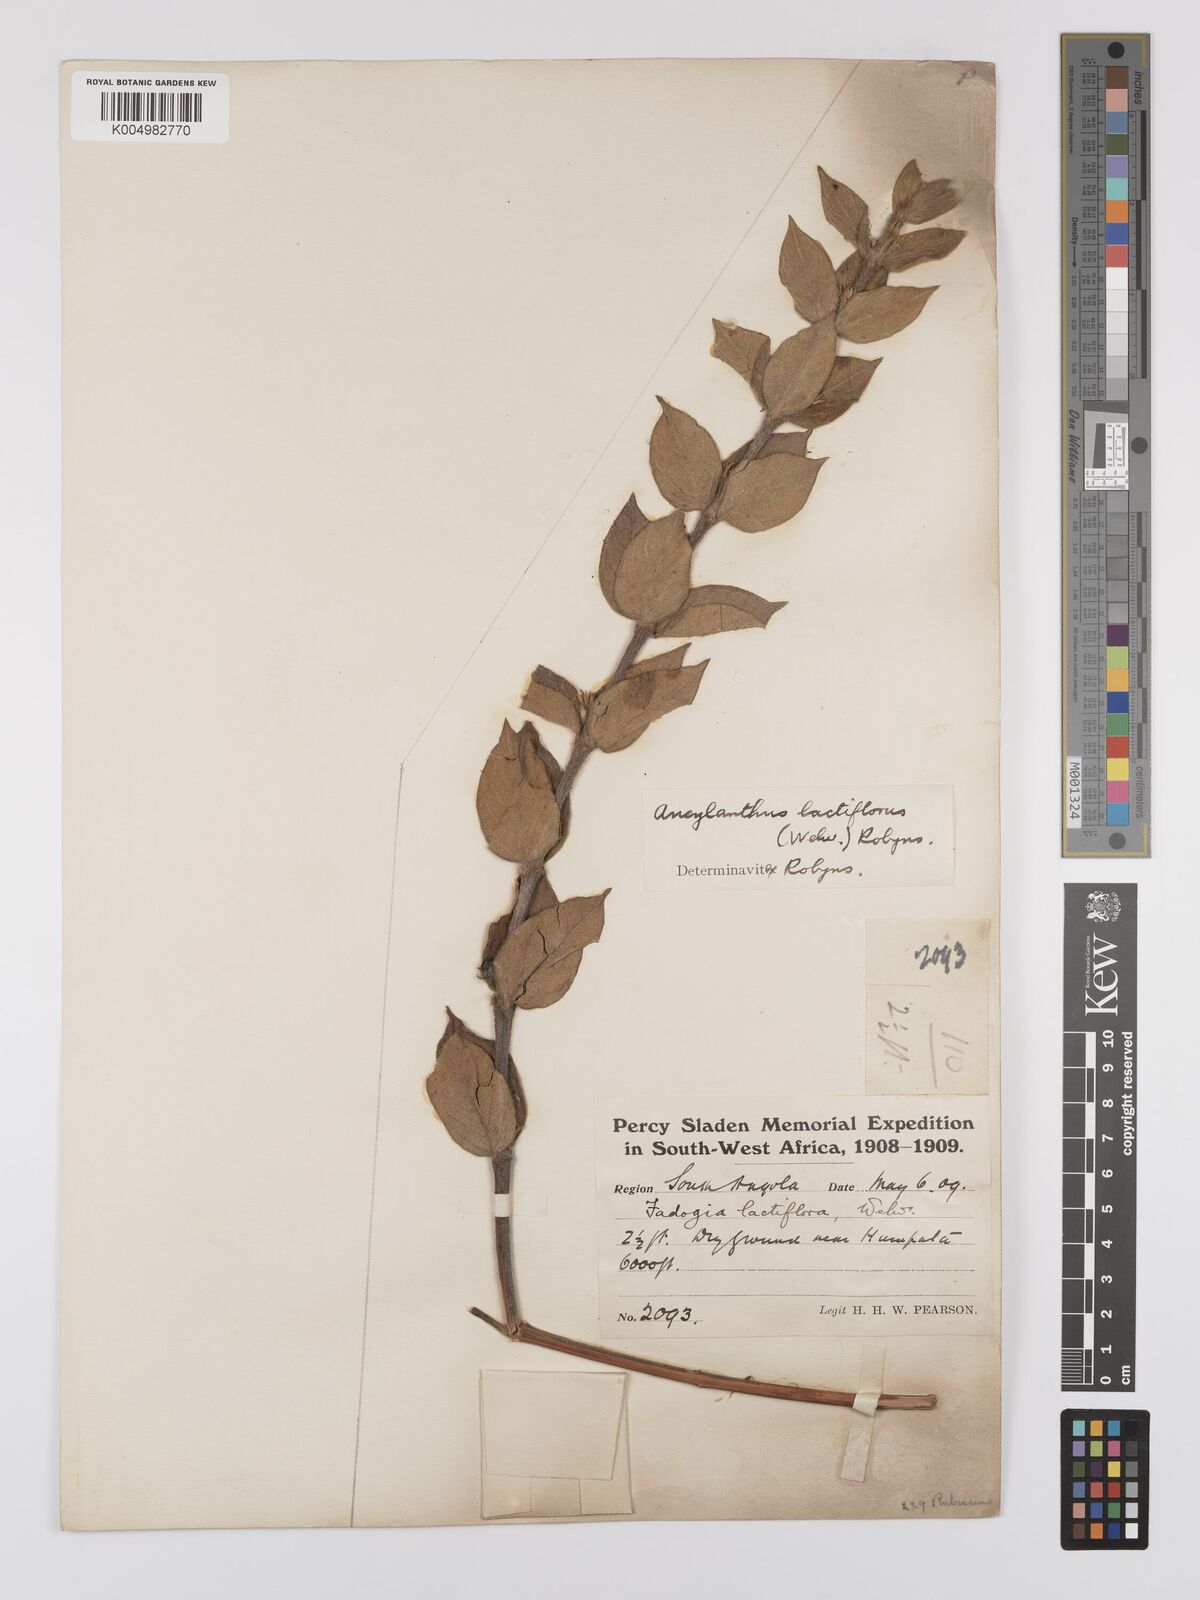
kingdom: Plantae
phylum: Tracheophyta
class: Magnoliopsida
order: Gentianales
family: Rubiaceae
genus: Fadogia
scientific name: Fadogia lactiflora
